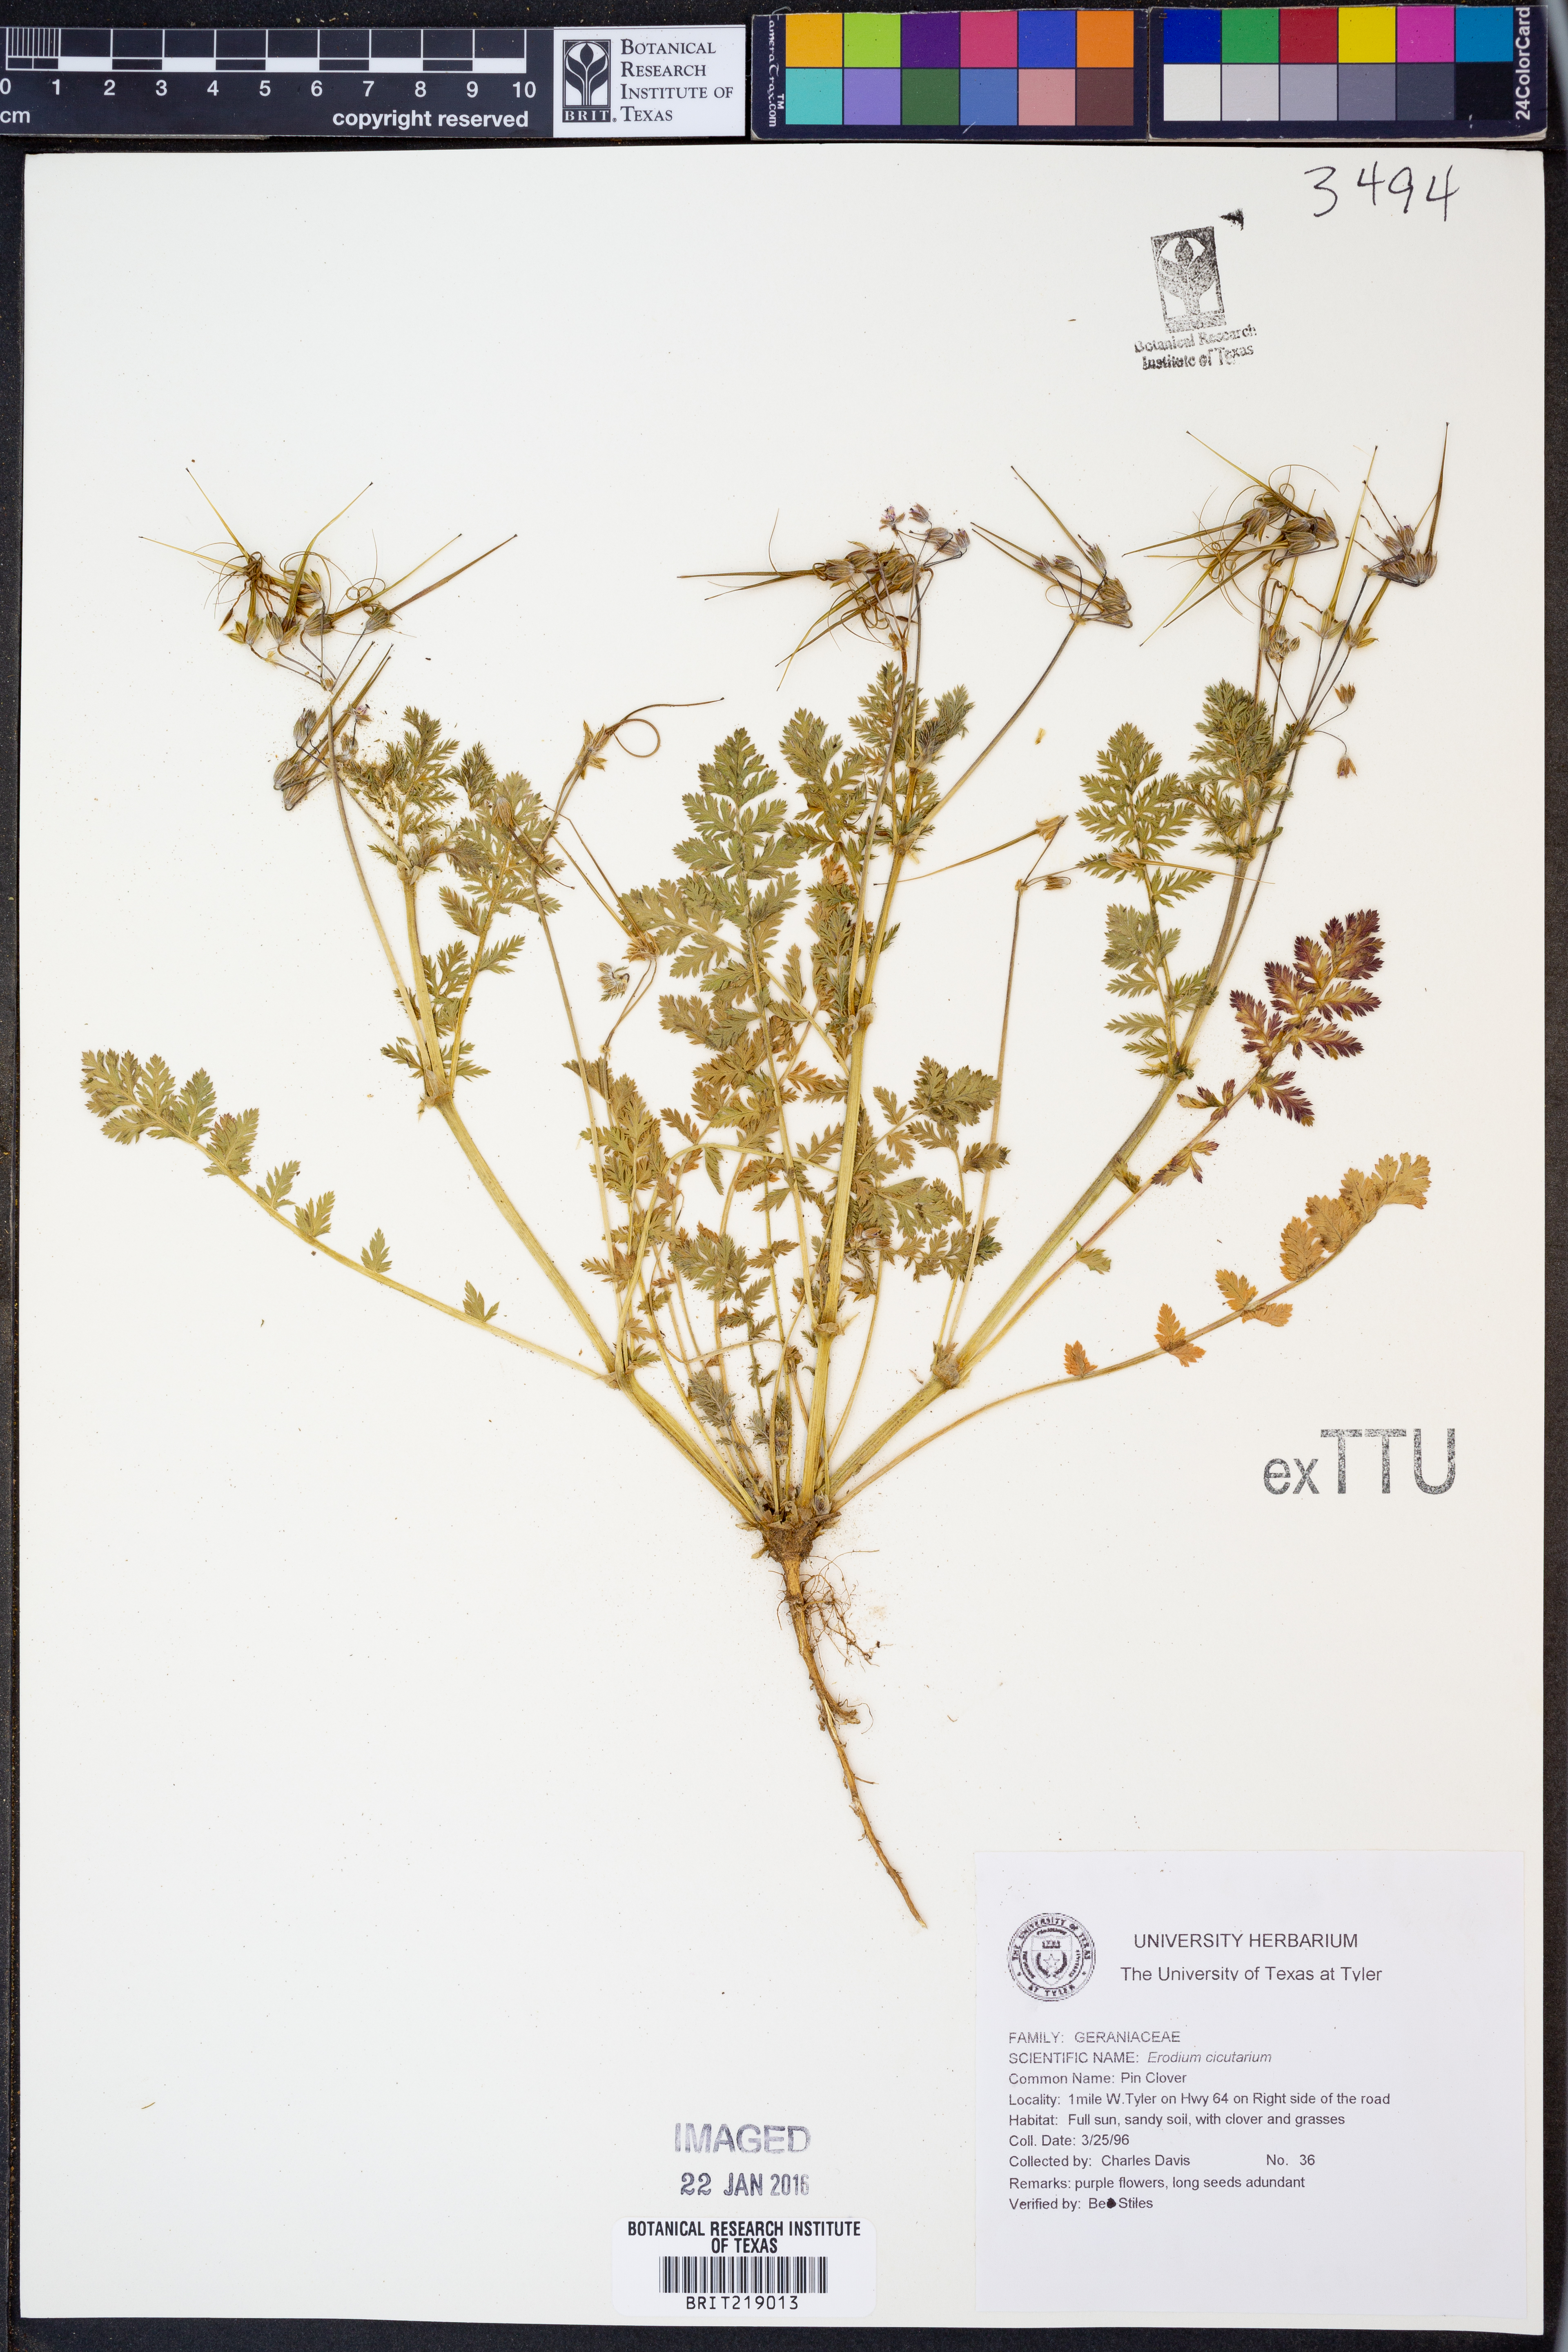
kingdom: Plantae
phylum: Tracheophyta
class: Magnoliopsida
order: Geraniales
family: Geraniaceae
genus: Erodium
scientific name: Erodium cicutarium
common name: Common stork's-bill
